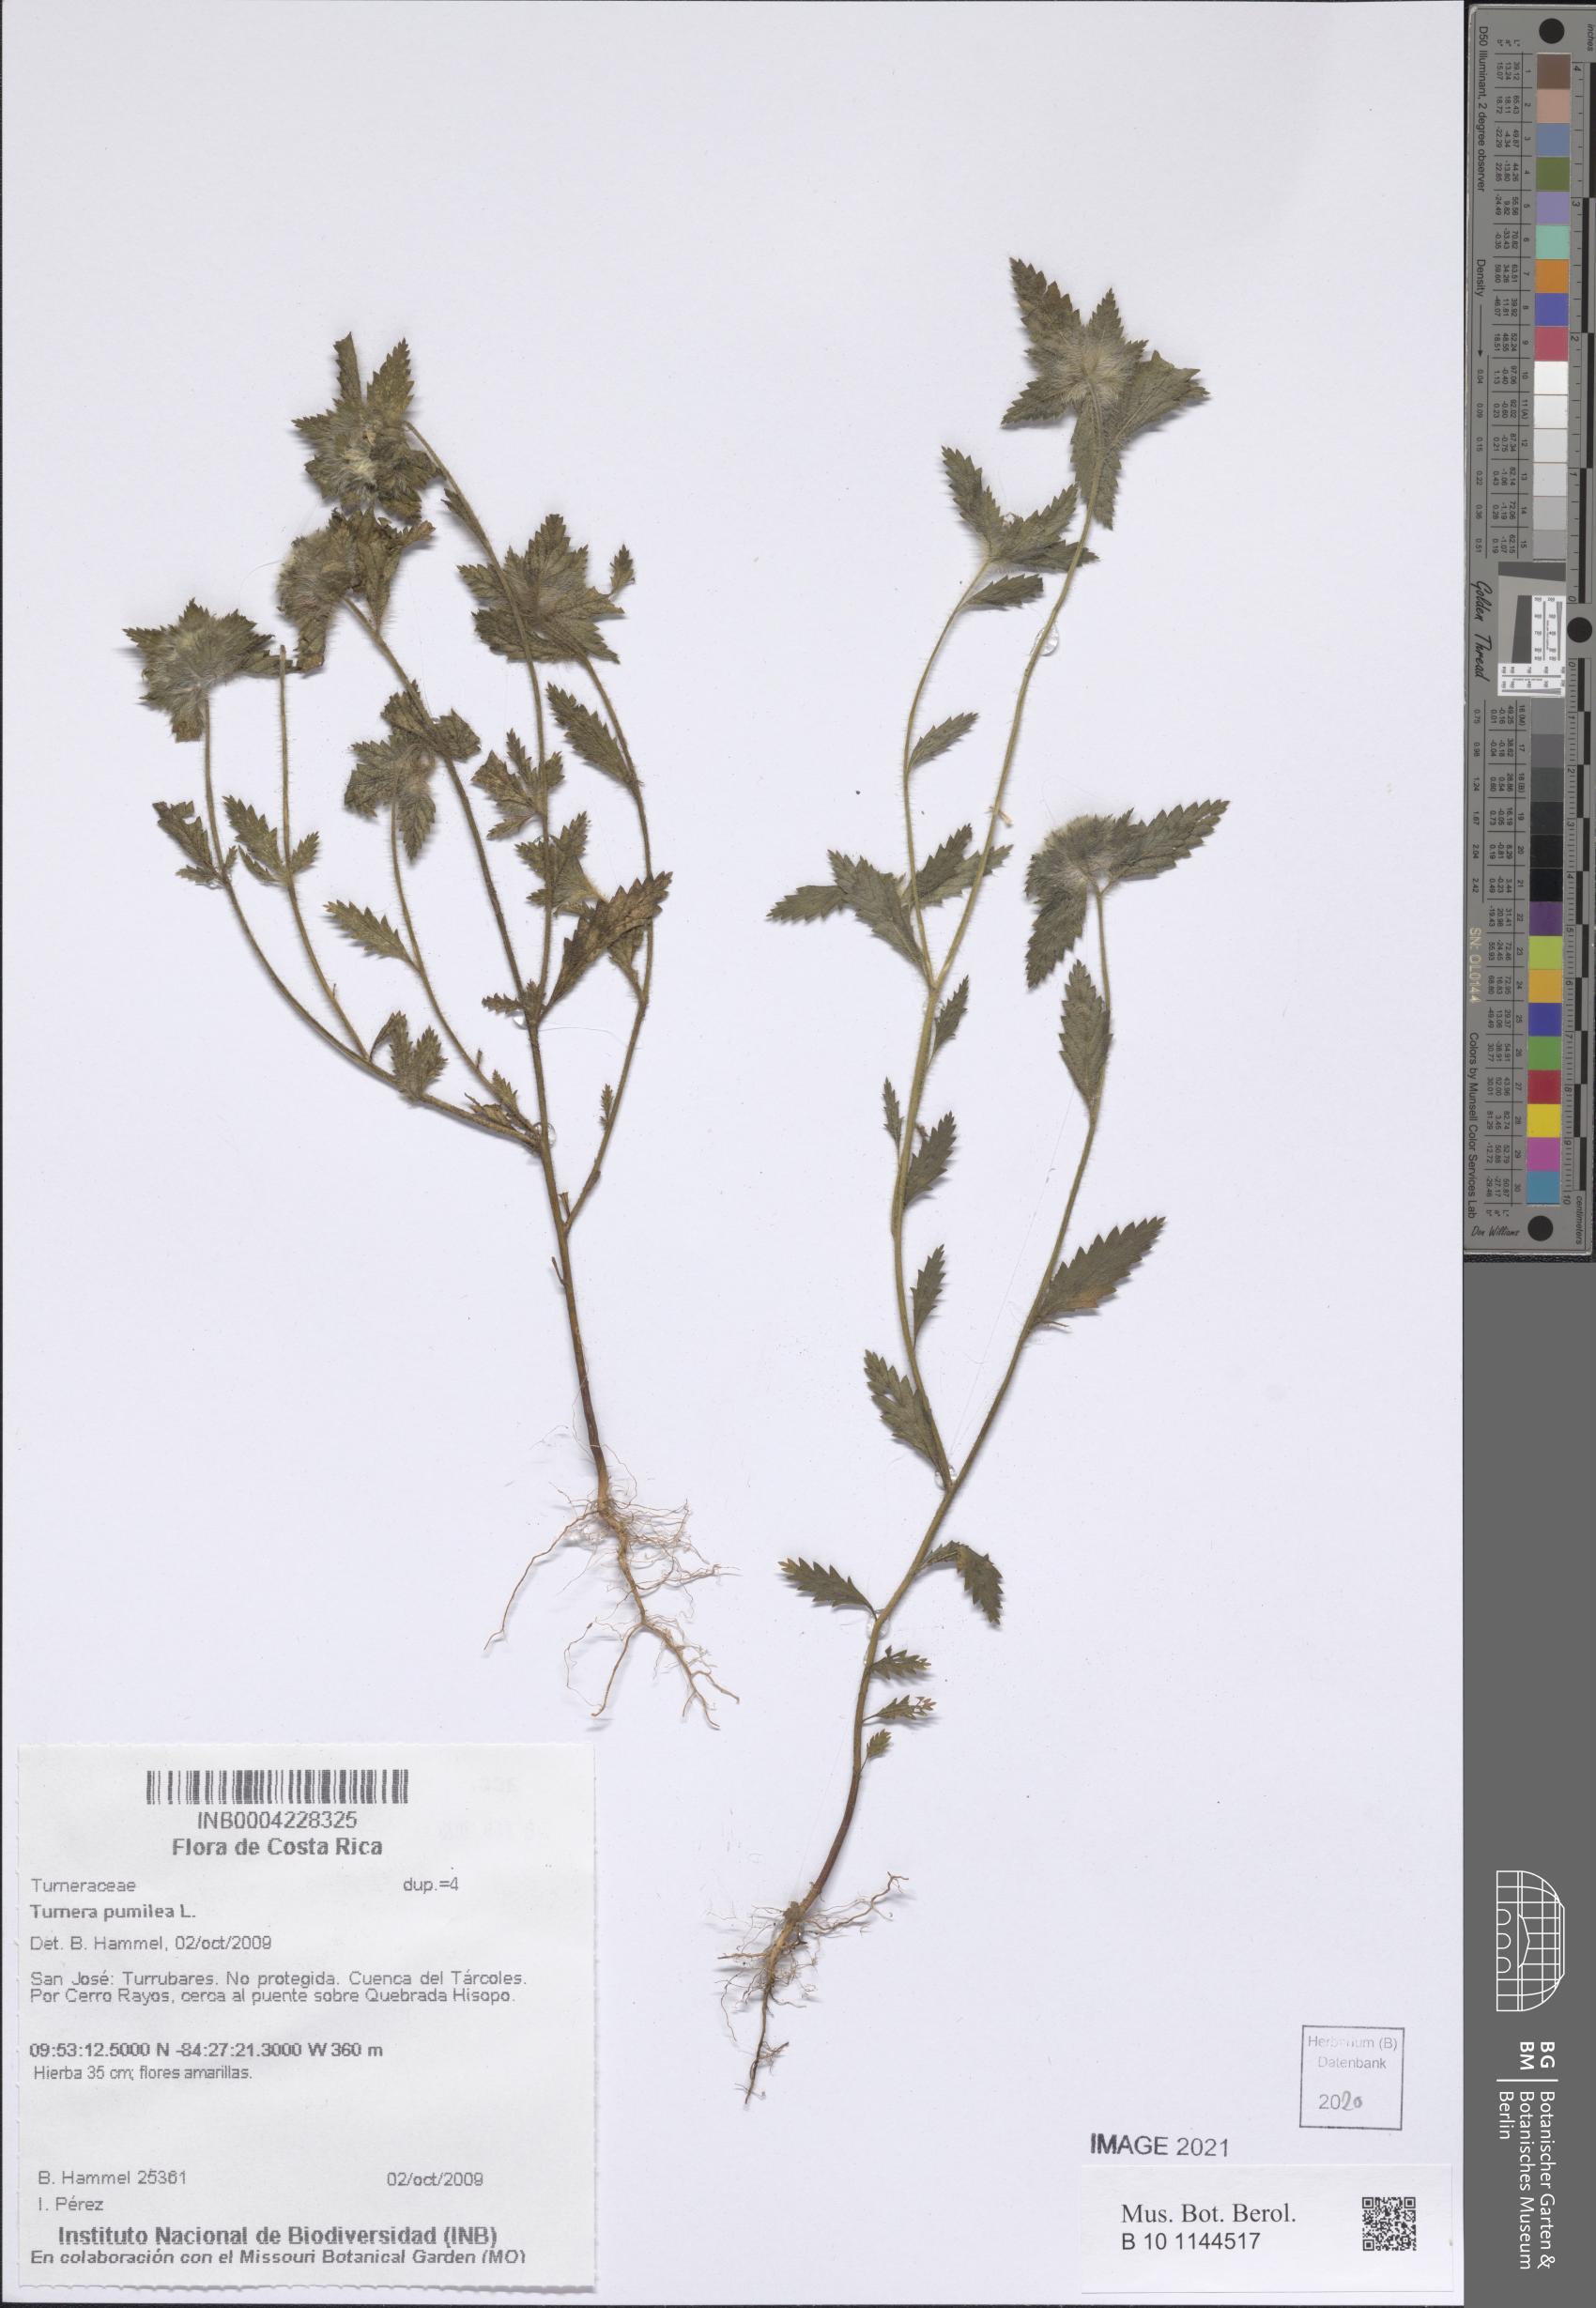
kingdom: Plantae
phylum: Tracheophyta
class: Magnoliopsida
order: Malpighiales
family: Turneraceae
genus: Turnera
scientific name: Turnera pumilea
